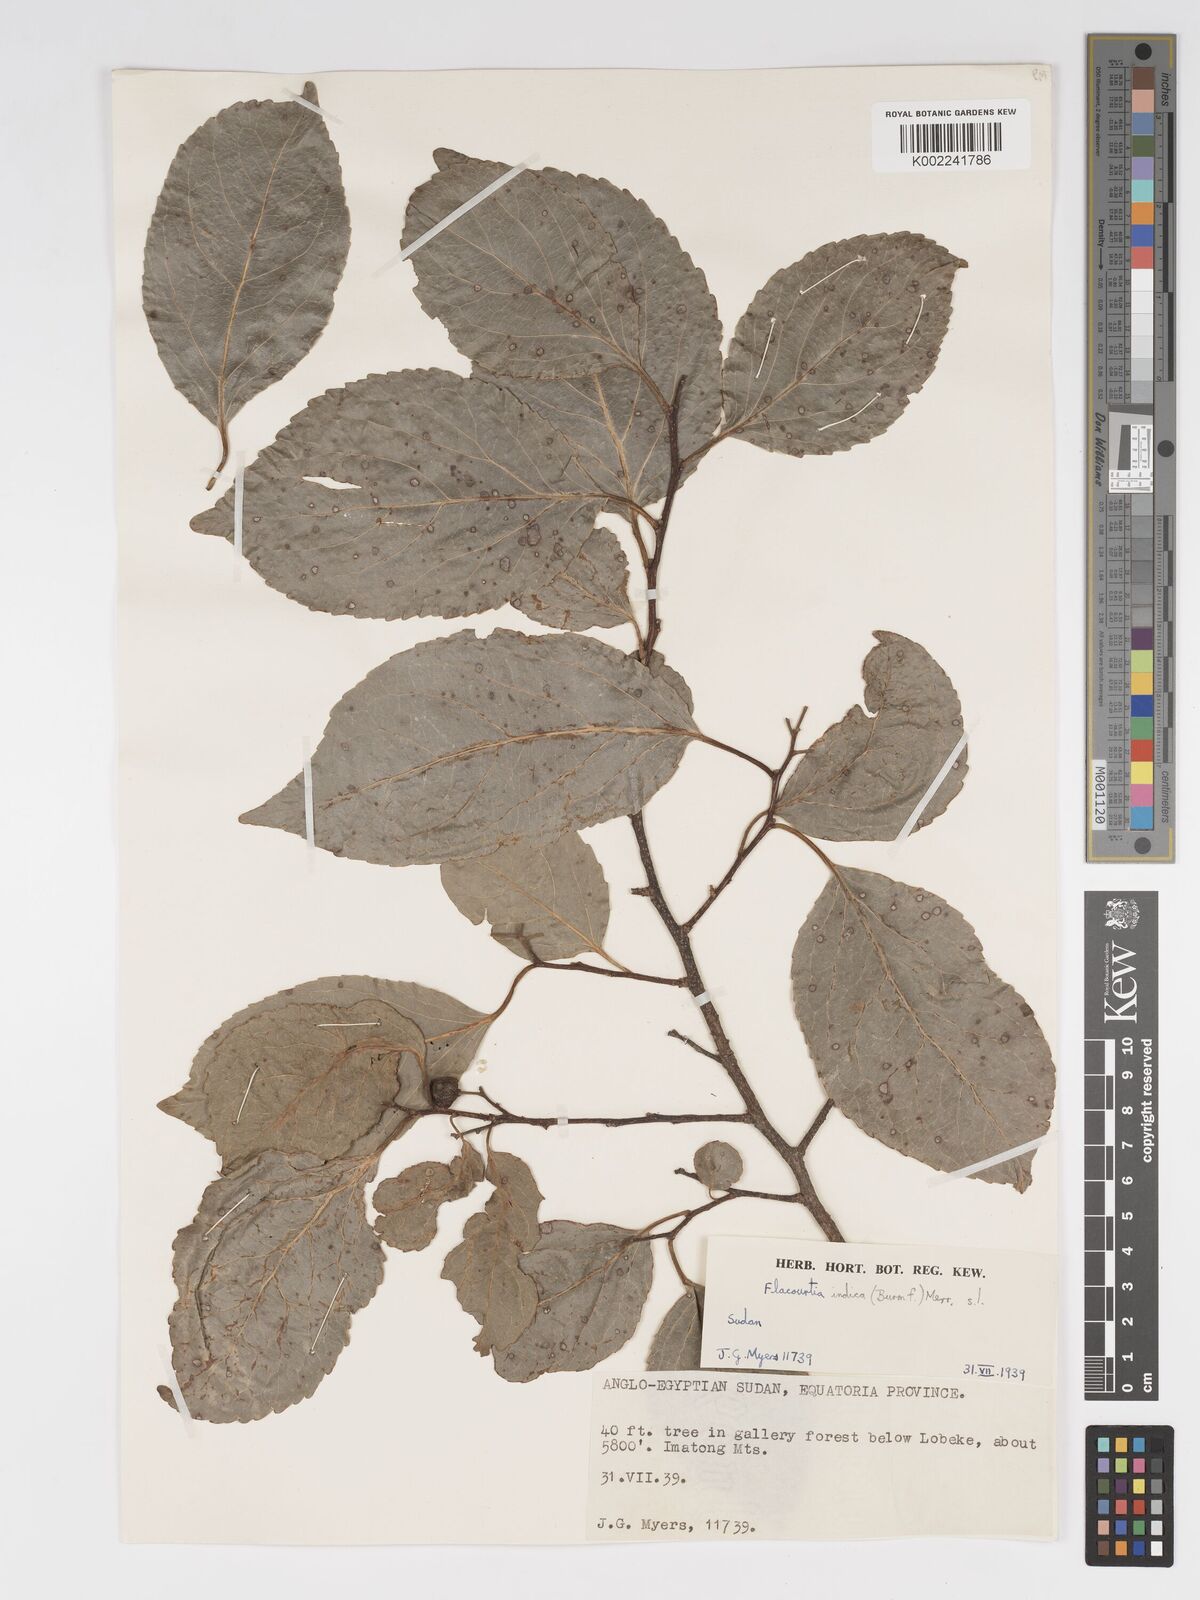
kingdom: Plantae
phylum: Tracheophyta
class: Magnoliopsida
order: Malpighiales
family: Salicaceae
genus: Flacourtia
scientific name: Flacourtia indica
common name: Governor's plum
